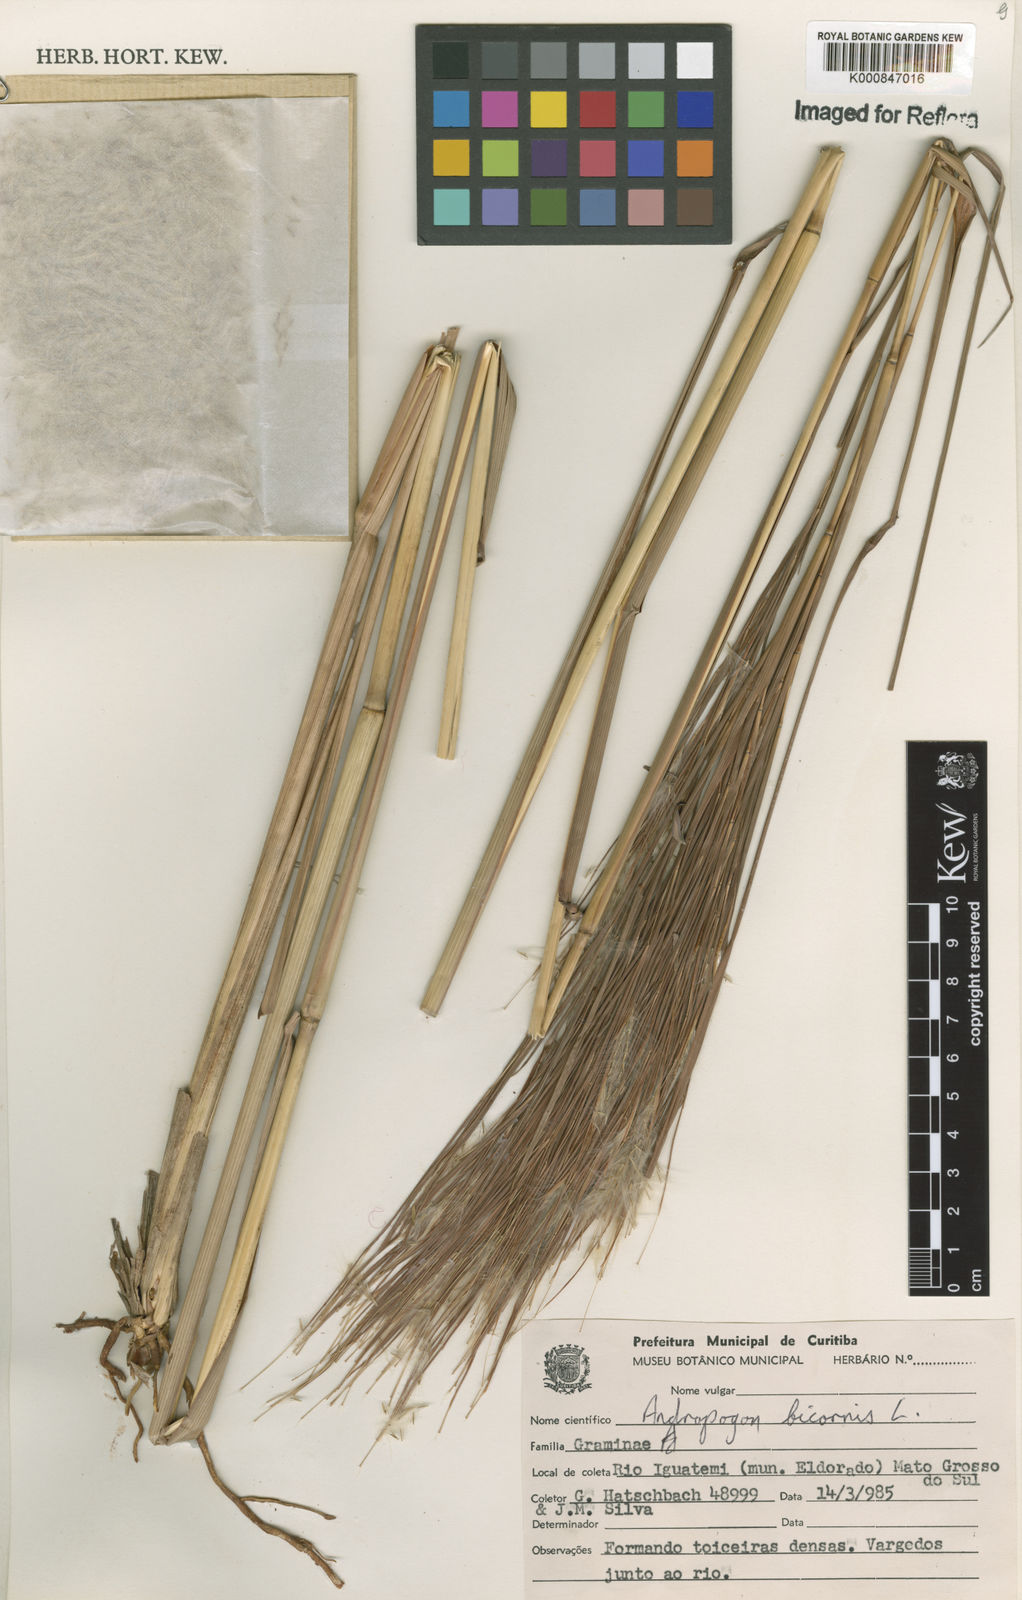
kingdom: Plantae
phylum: Tracheophyta
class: Liliopsida
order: Poales
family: Poaceae
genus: Andropogon
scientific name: Andropogon
